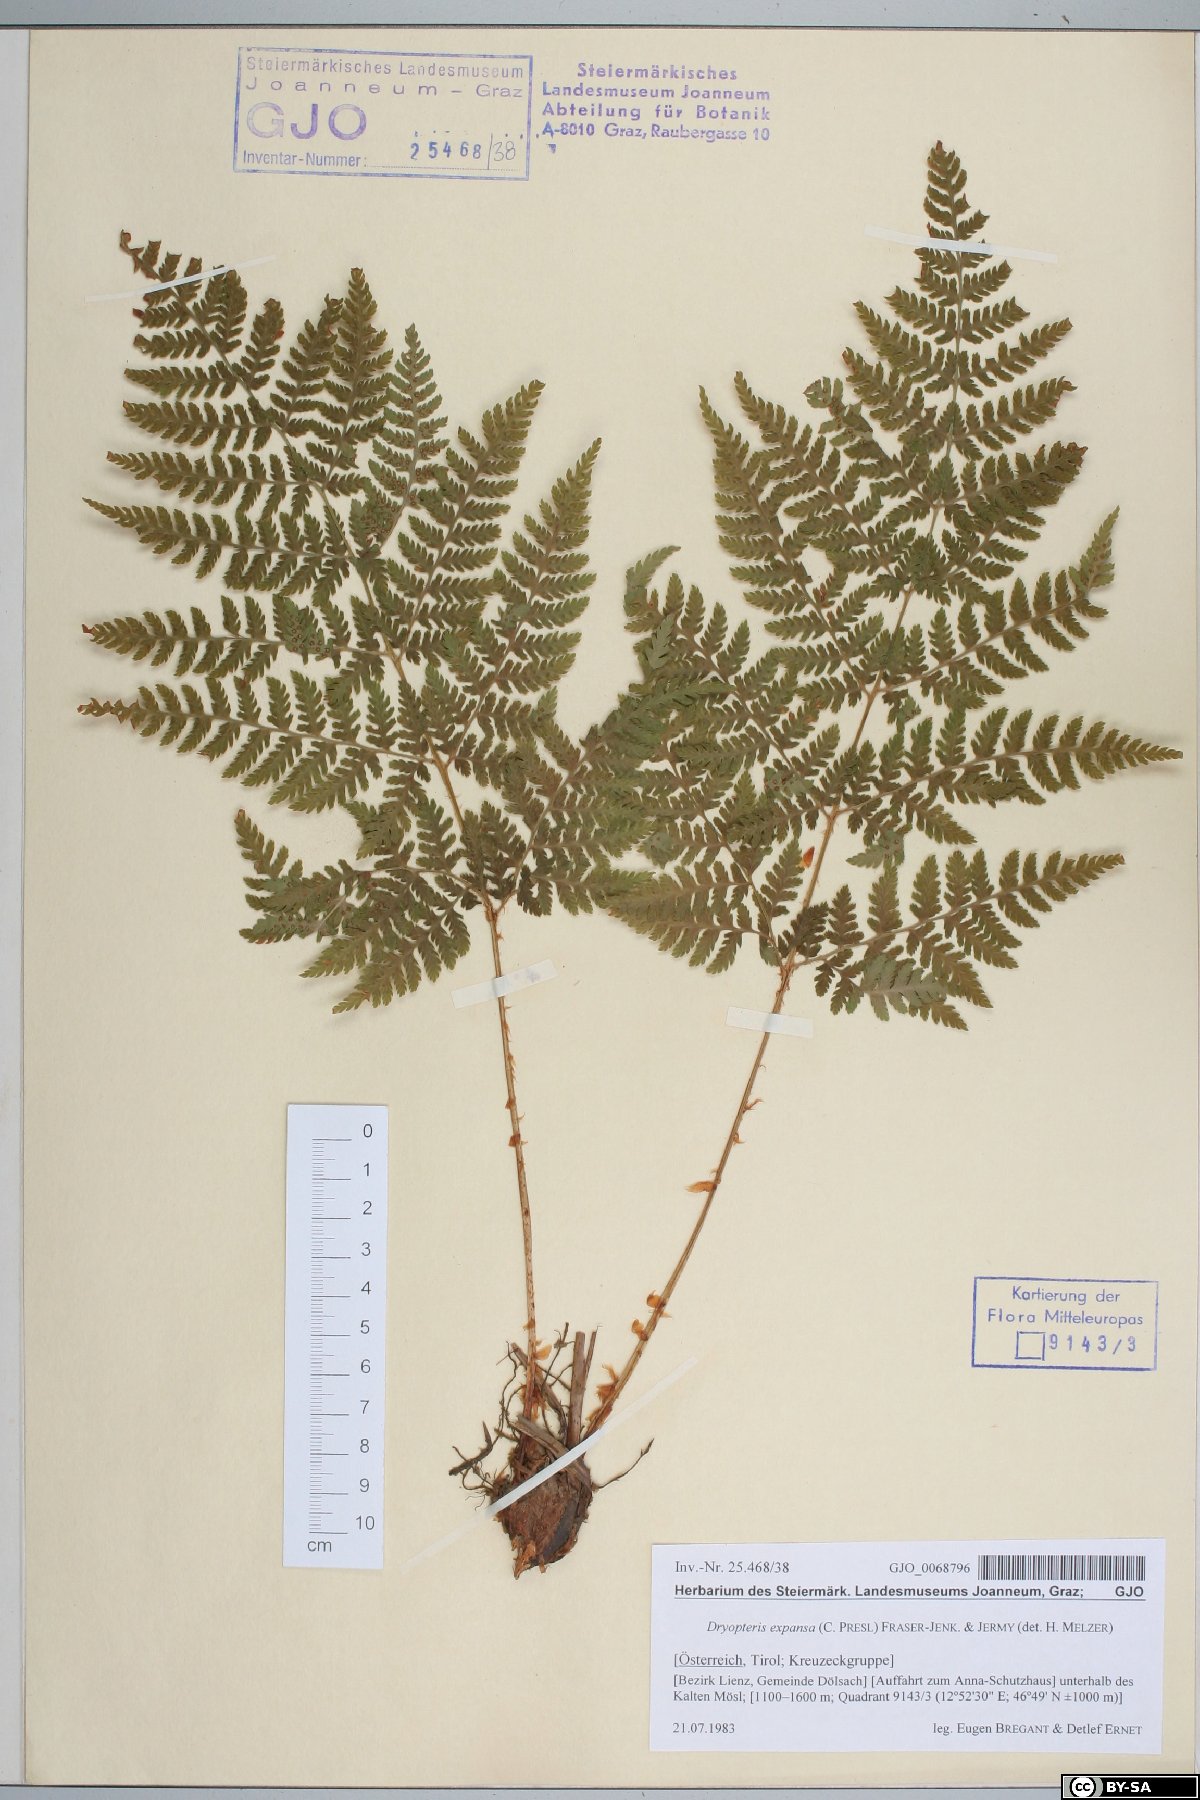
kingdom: Plantae
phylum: Tracheophyta
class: Polypodiopsida
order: Polypodiales
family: Dryopteridaceae
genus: Dryopteris
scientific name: Dryopteris expansa
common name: Northern buckler fern
